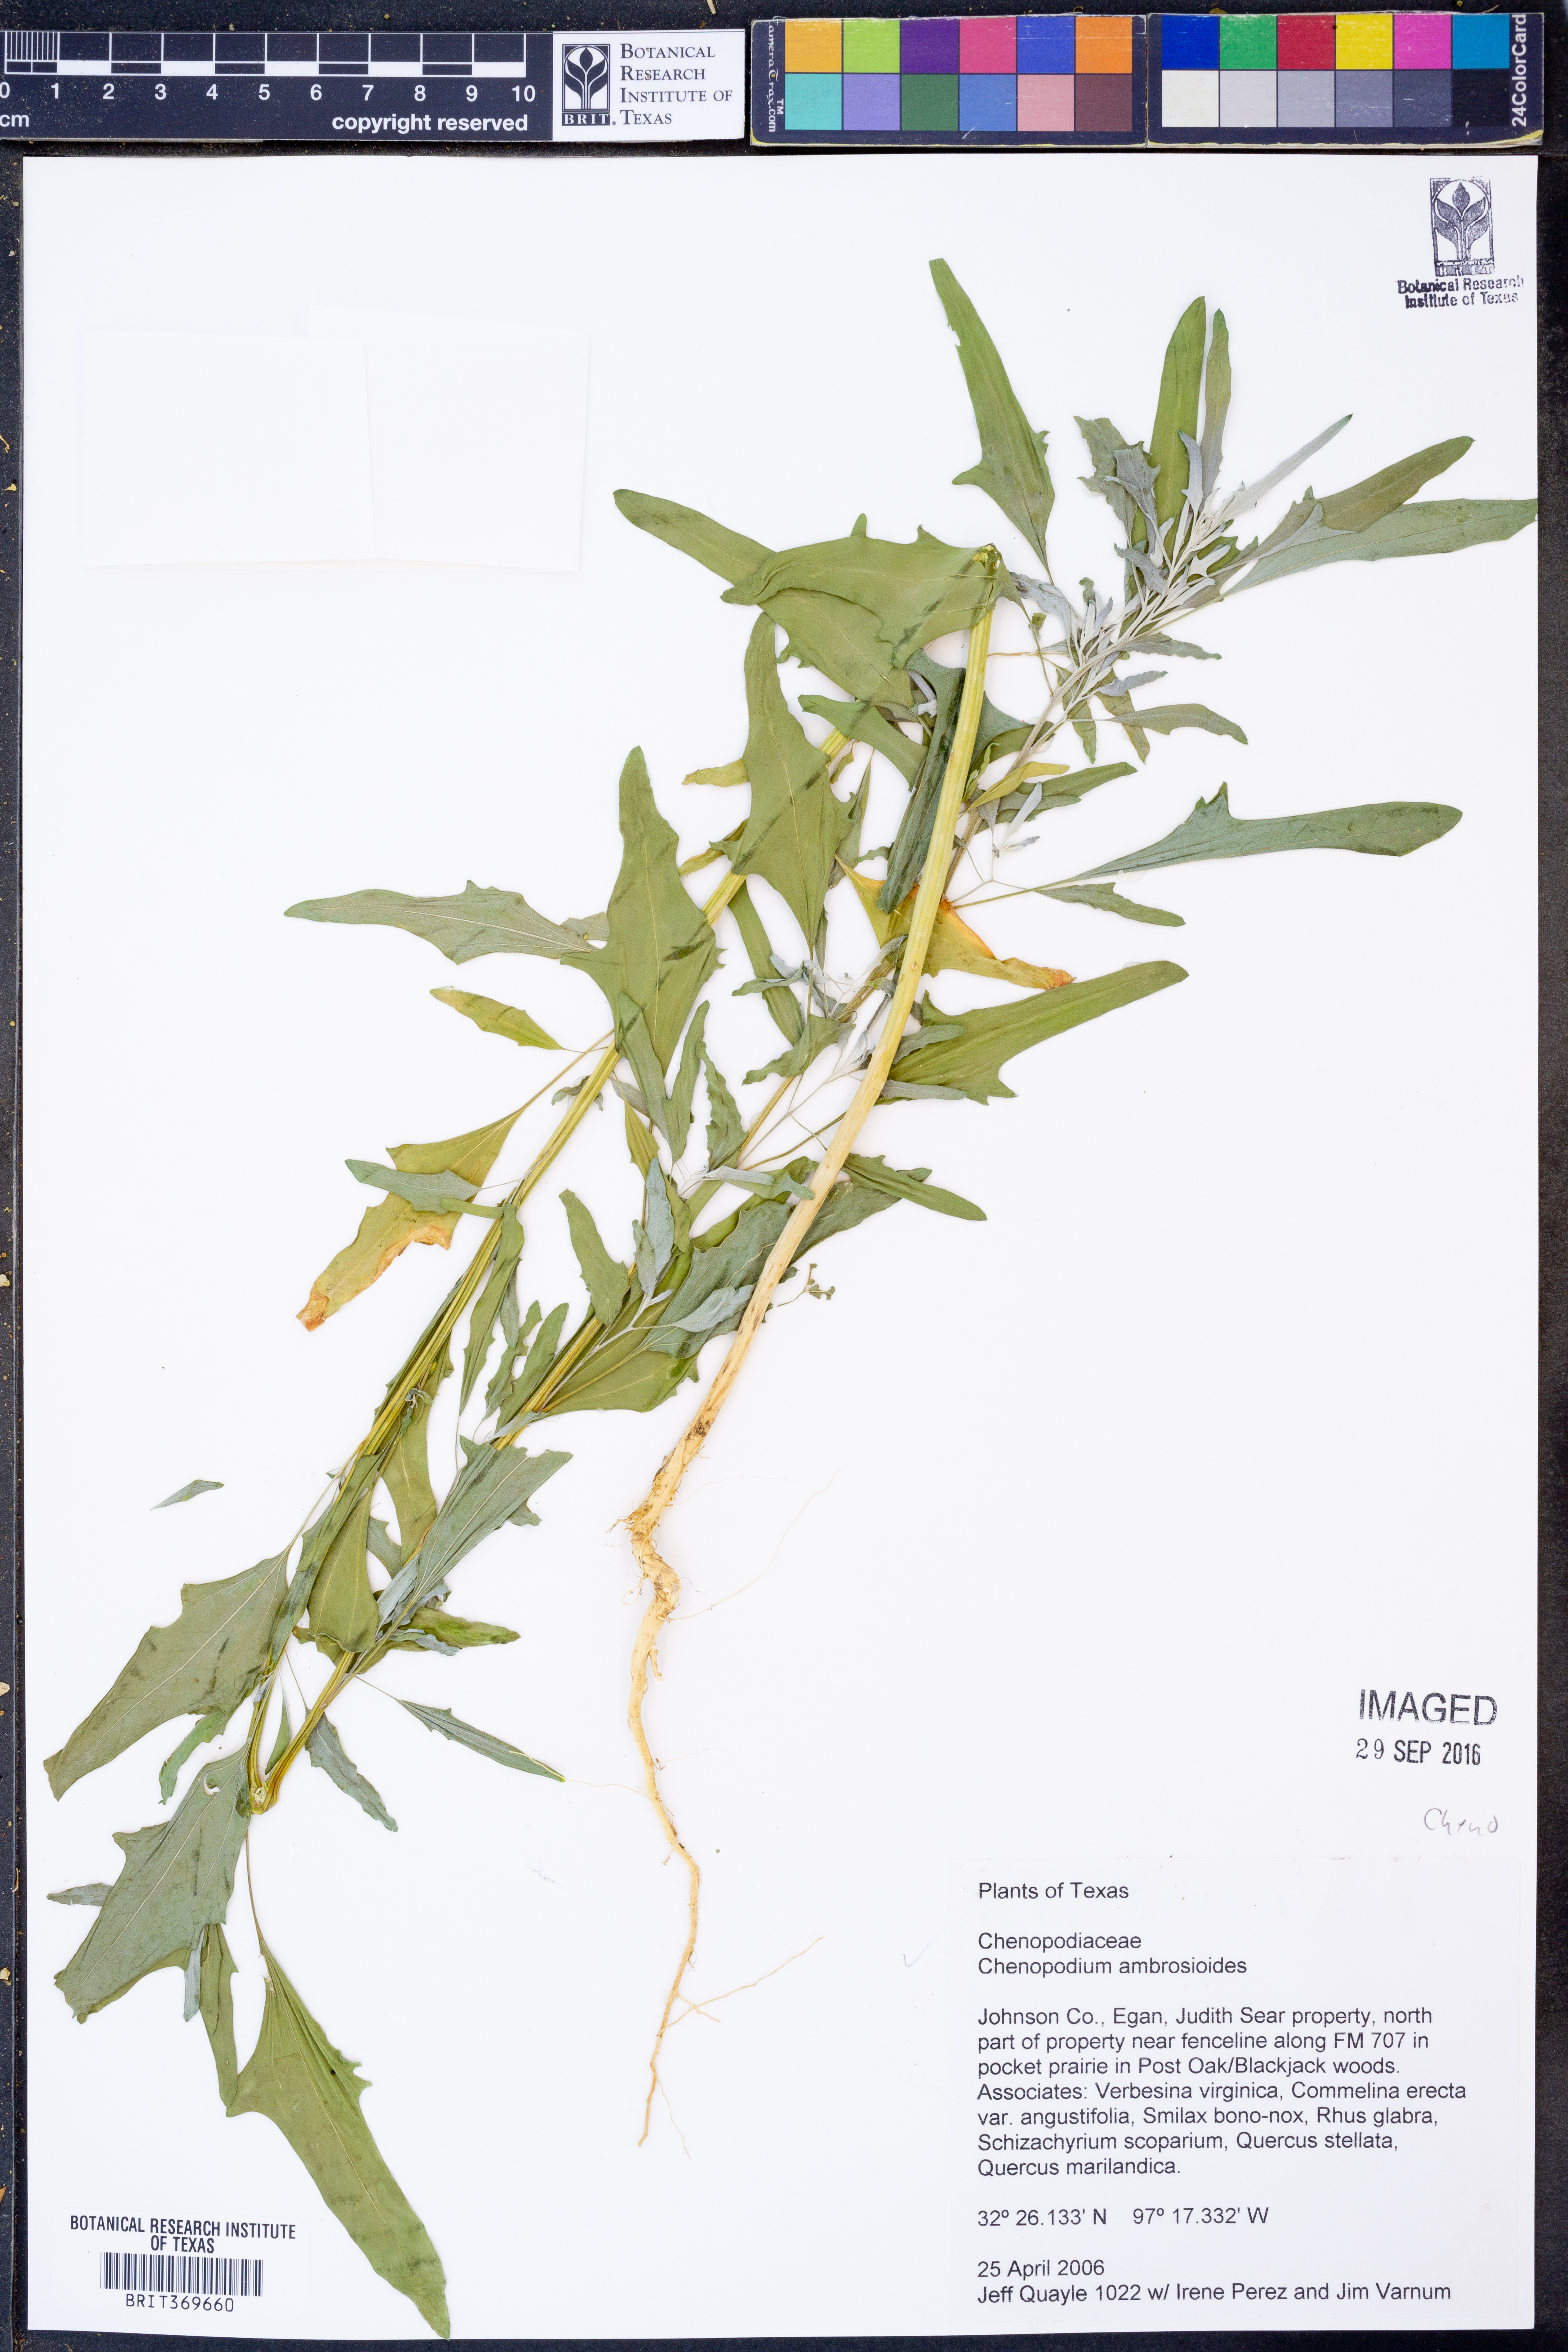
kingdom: Plantae
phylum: Tracheophyta
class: Magnoliopsida
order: Caryophyllales
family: Amaranthaceae
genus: Dysphania
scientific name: Dysphania ambrosioides
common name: Wormseed
